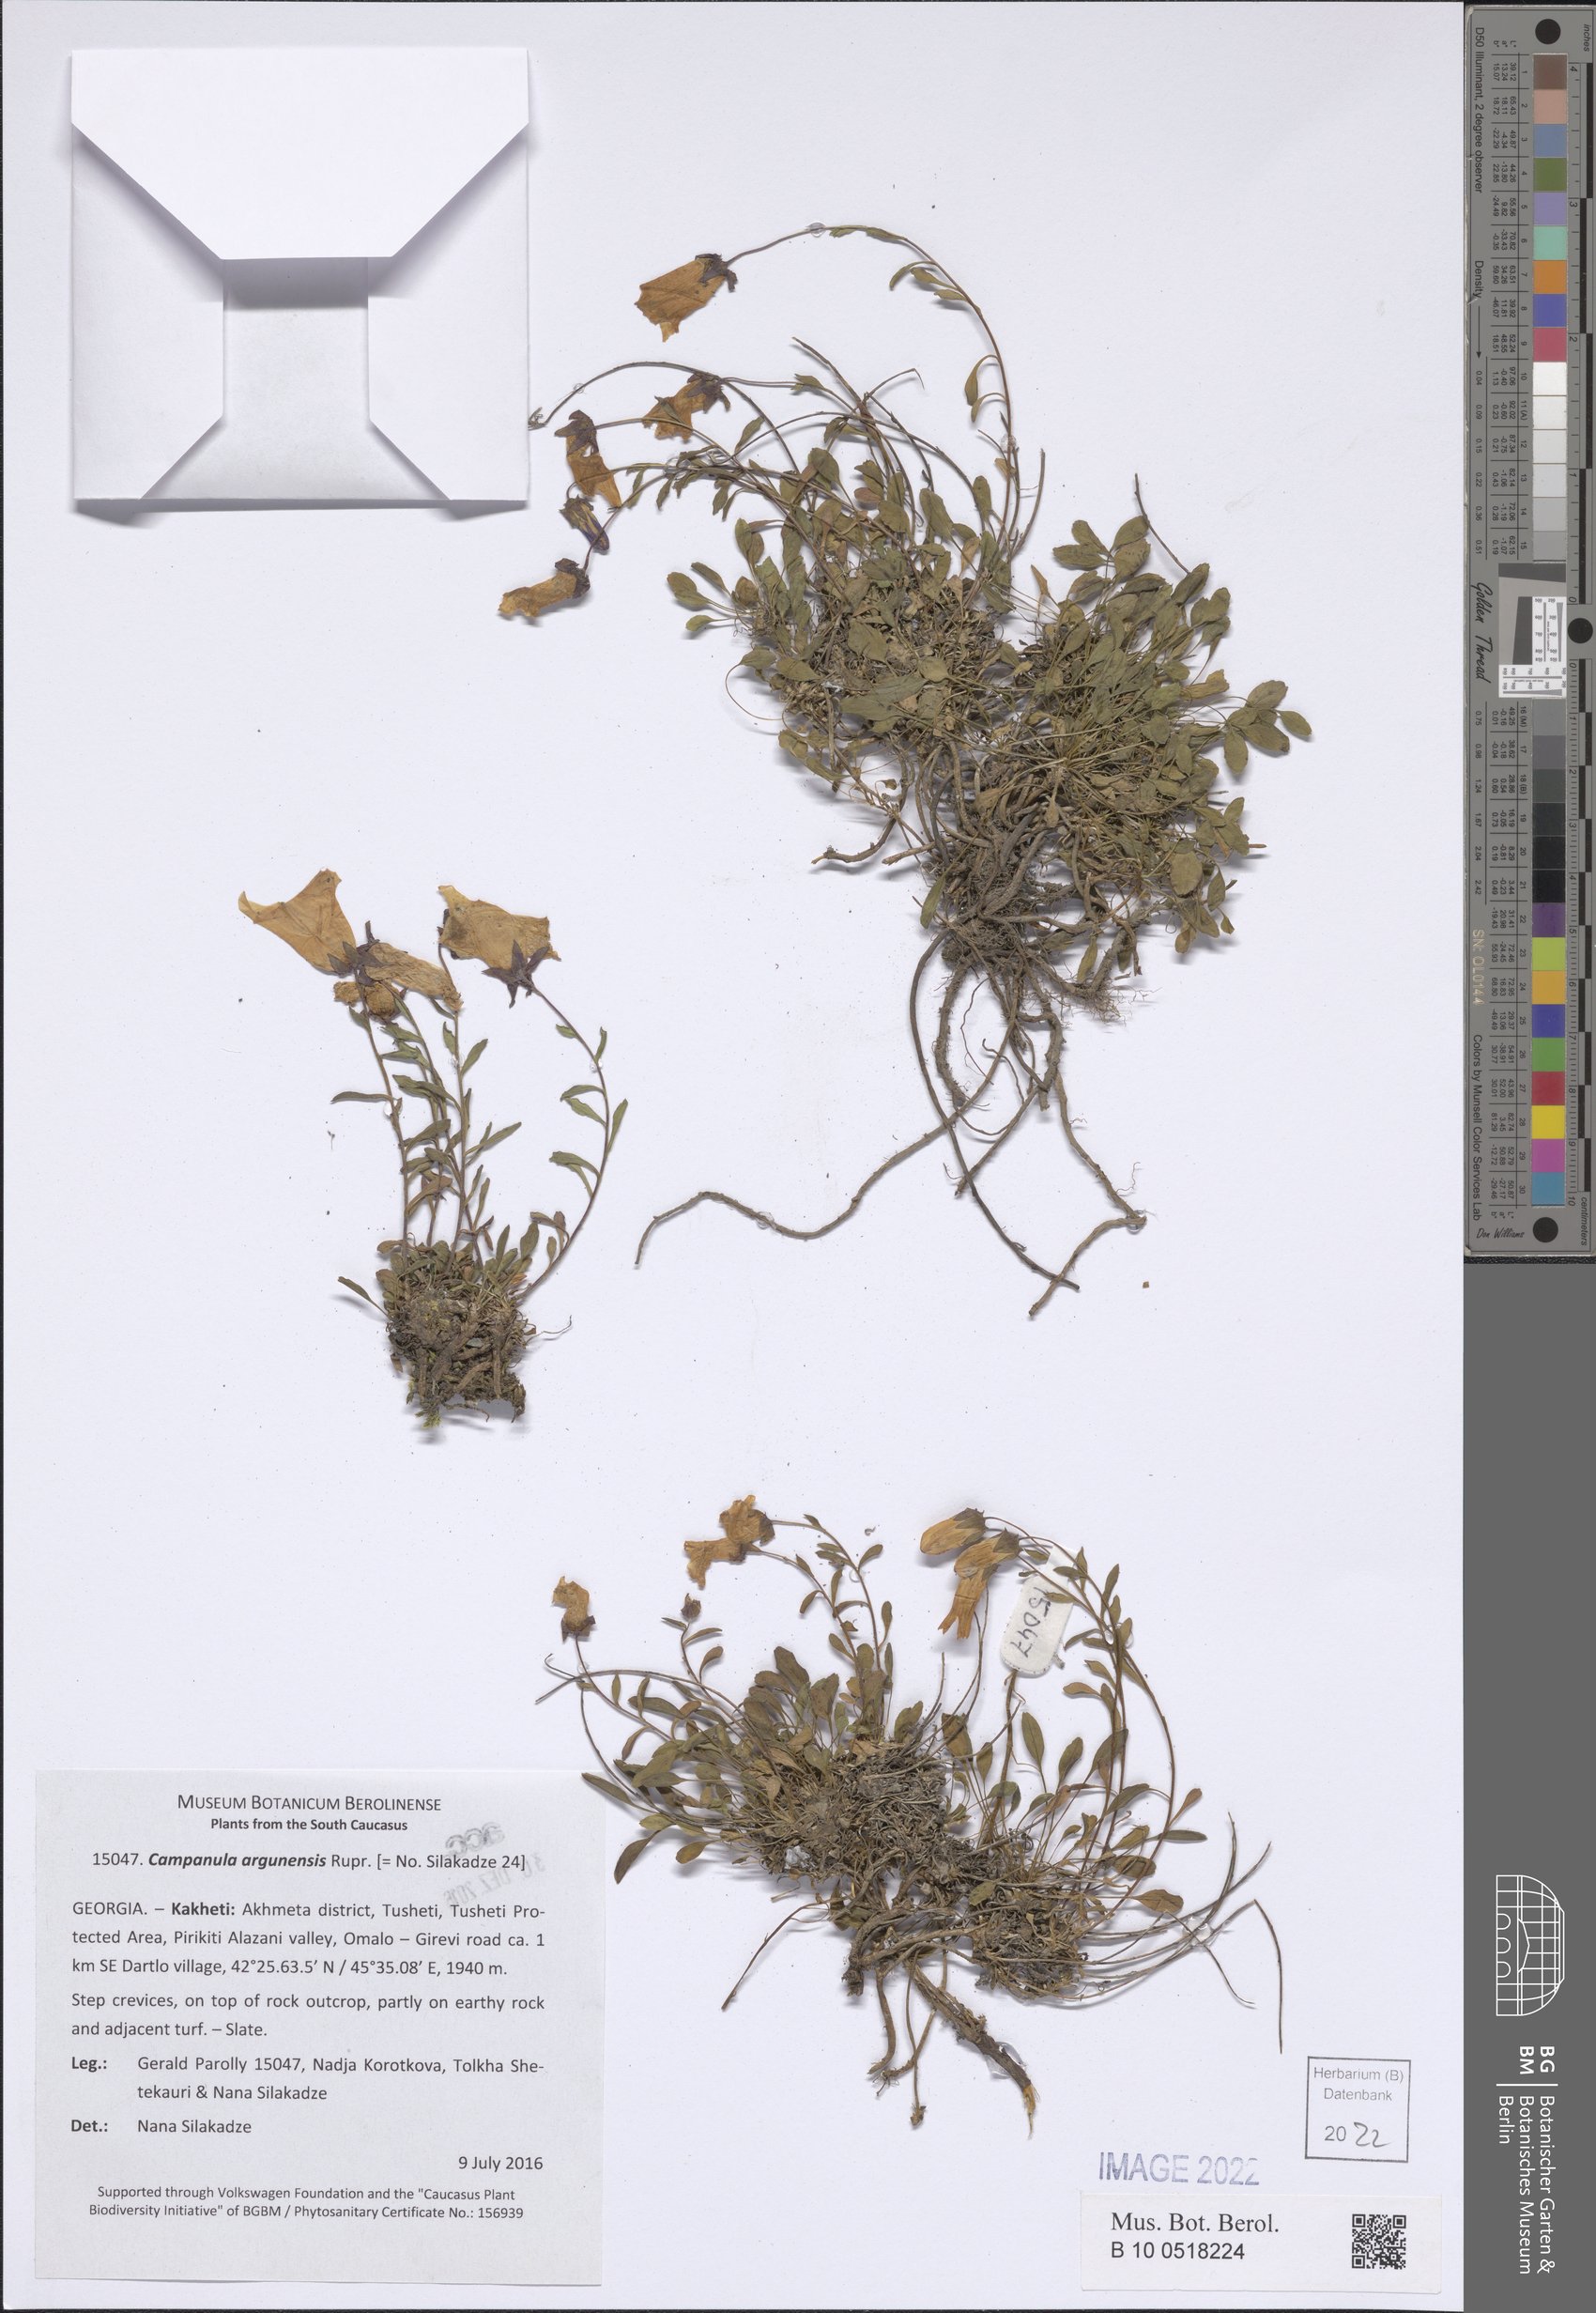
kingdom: Plantae
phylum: Tracheophyta
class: Magnoliopsida
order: Asterales
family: Campanulaceae
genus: Campanula
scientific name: Campanula saxifraga
